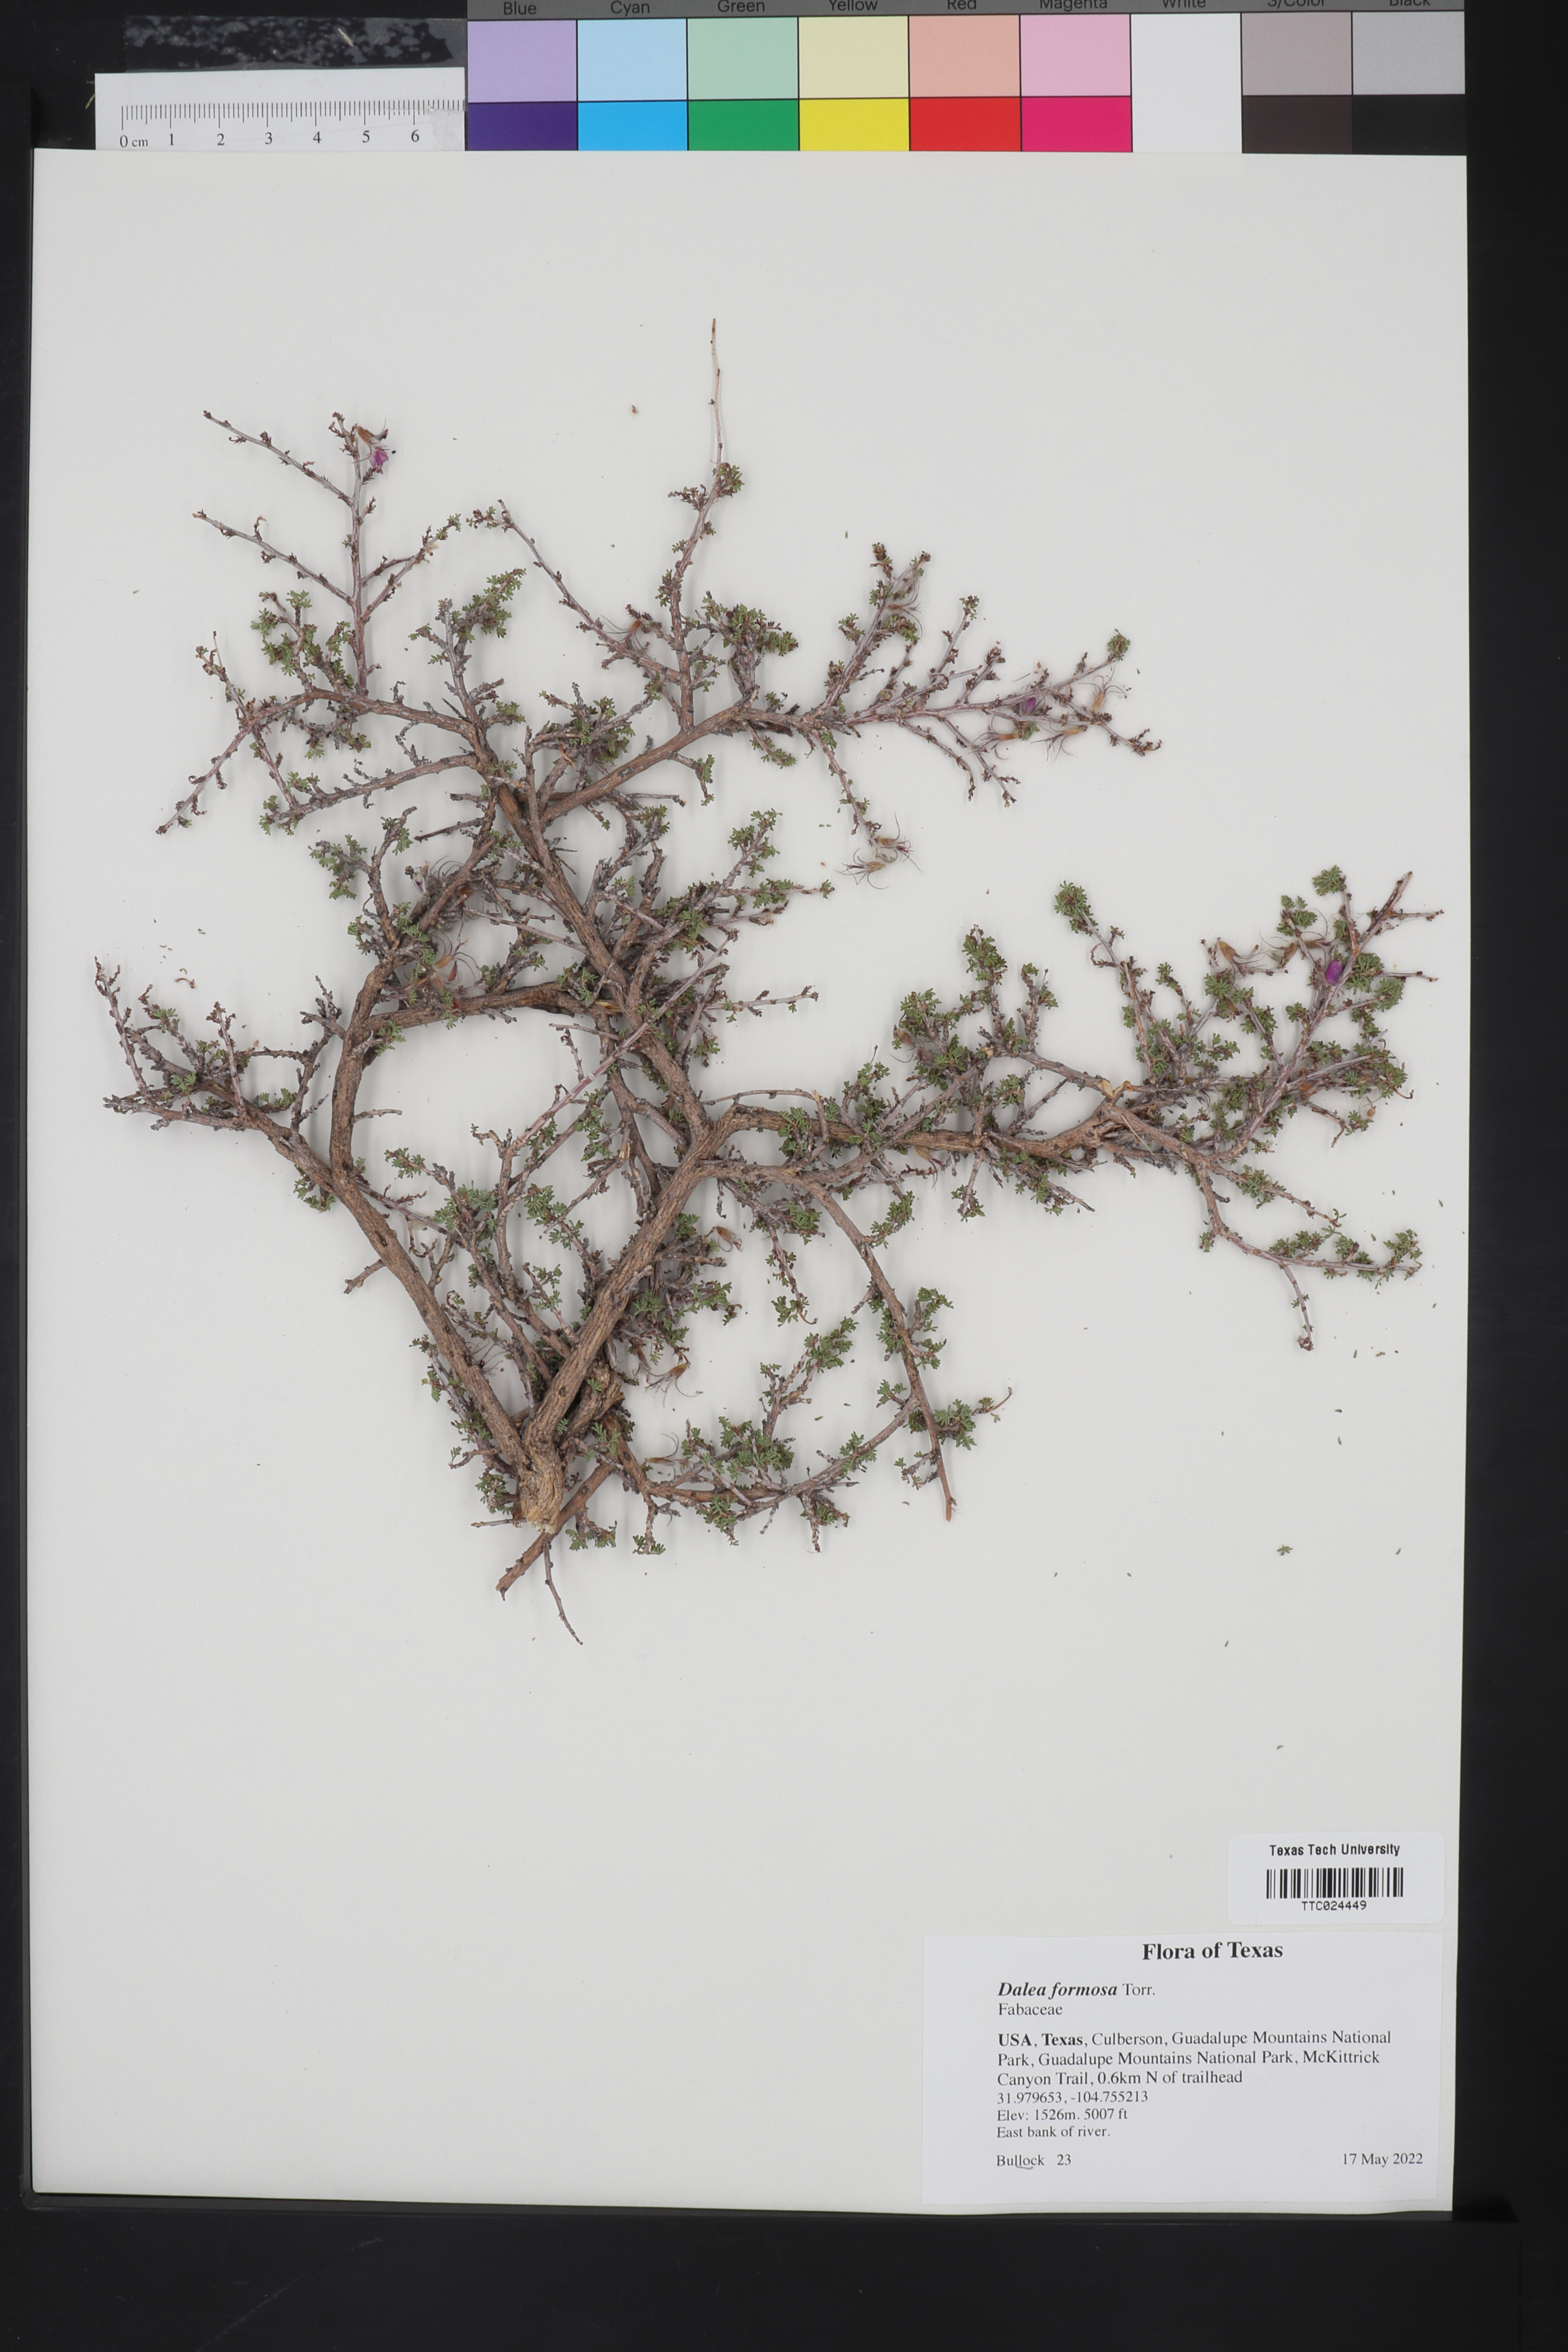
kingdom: Plantae
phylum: Tracheophyta
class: Magnoliopsida
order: Fabales
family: Fabaceae
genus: Dalea
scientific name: Dalea formosa
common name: Feather-plume dalea
